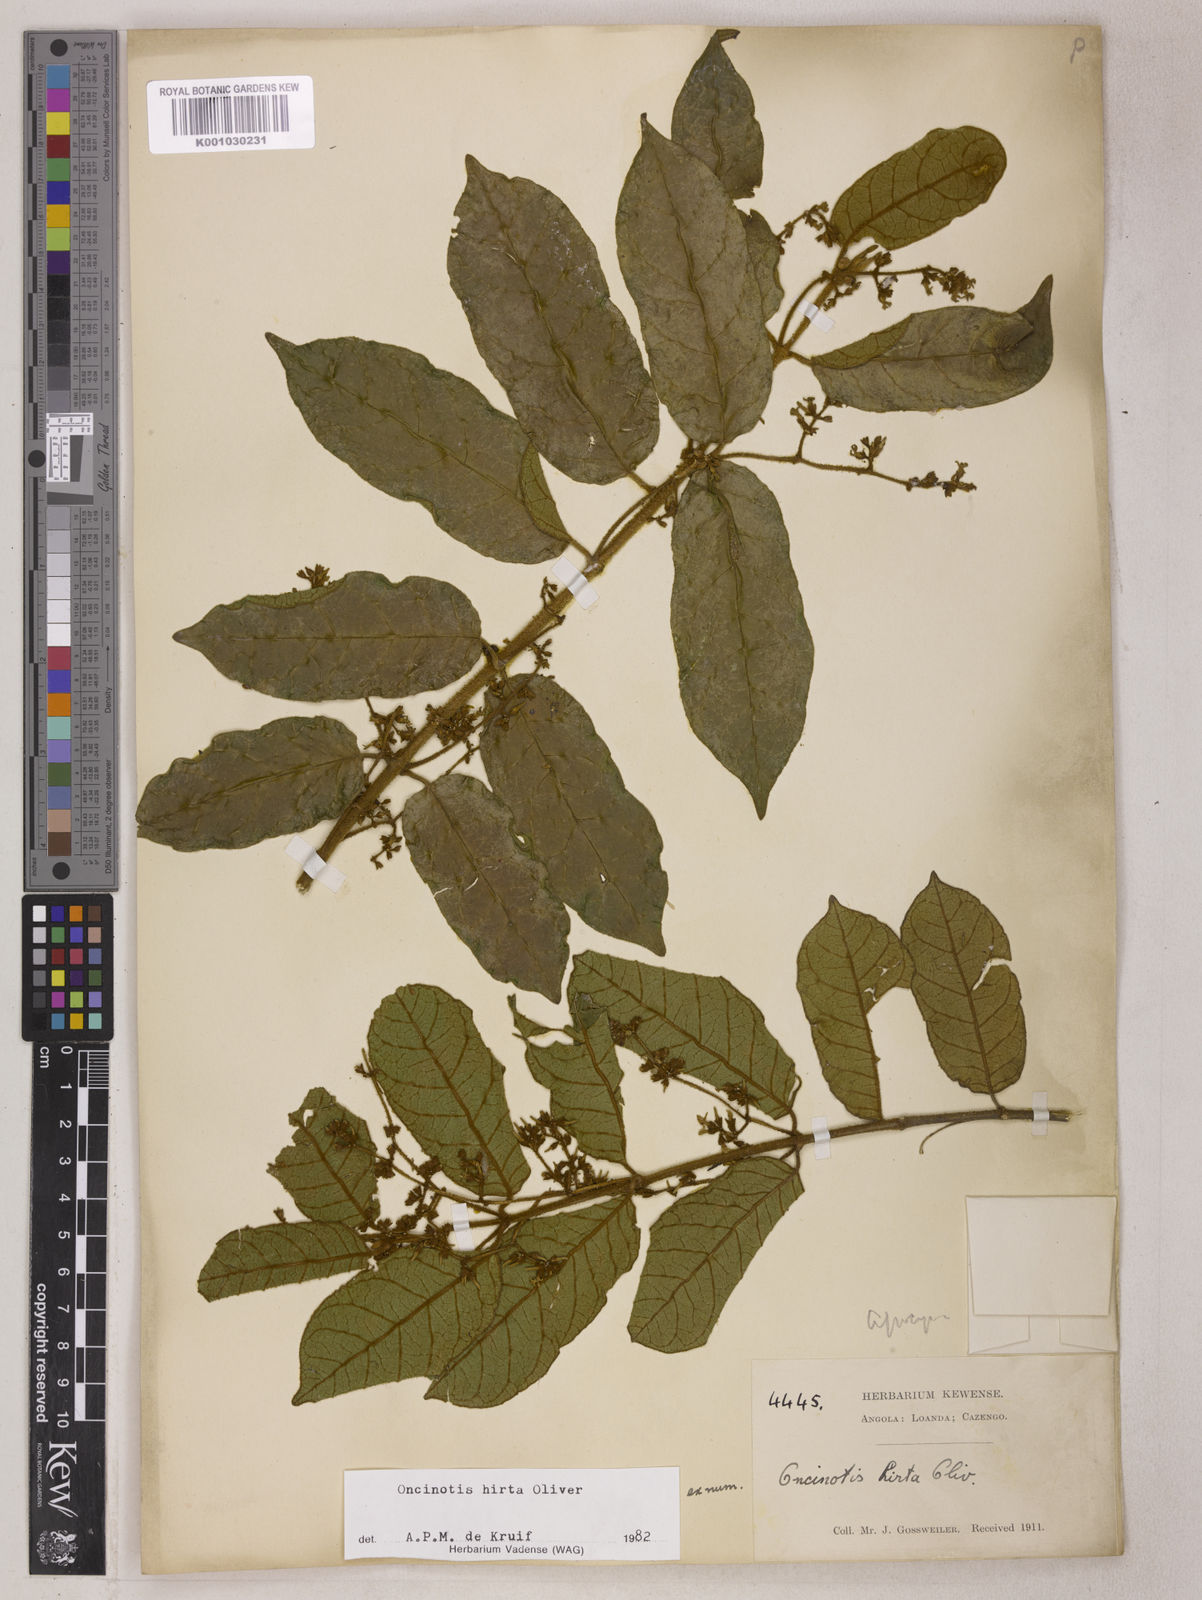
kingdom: Plantae
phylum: Tracheophyta
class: Magnoliopsida
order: Gentianales
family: Apocynaceae
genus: Oncinotis
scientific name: Oncinotis hirta
